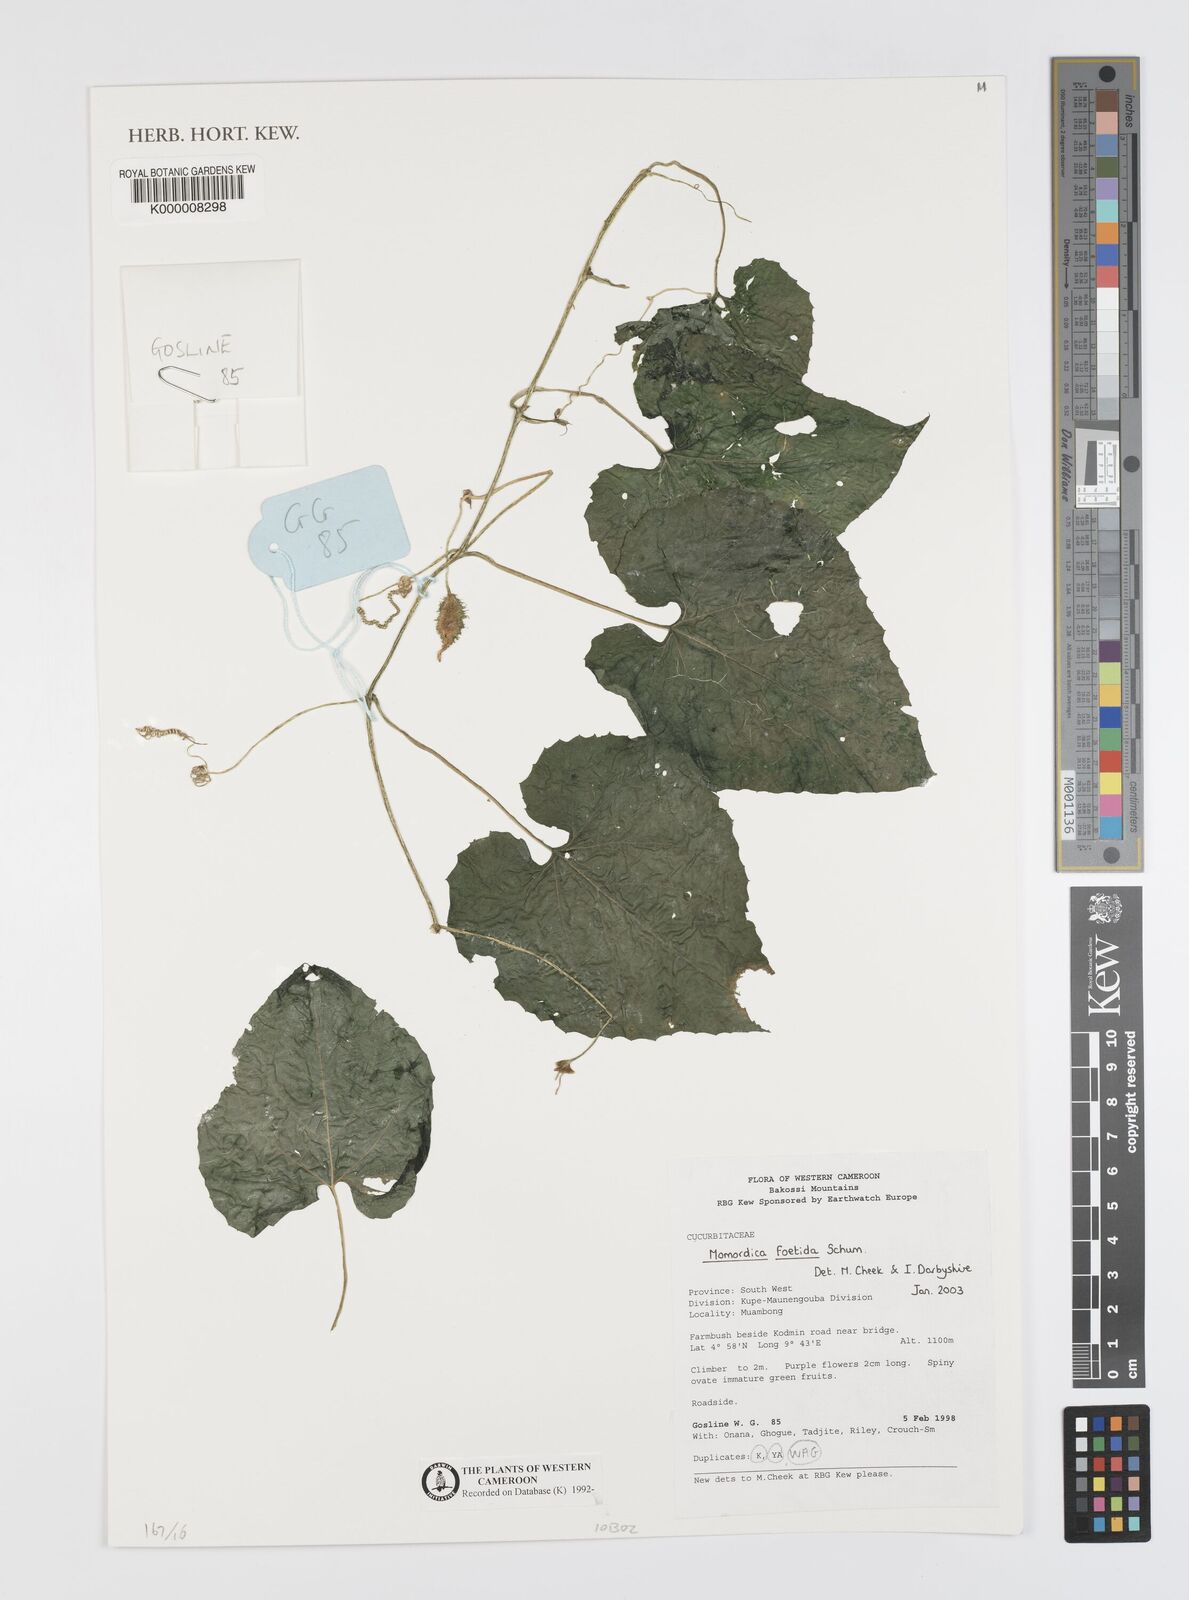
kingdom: Plantae
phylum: Tracheophyta
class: Magnoliopsida
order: Cucurbitales
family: Cucurbitaceae
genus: Momordica
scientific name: Momordica foetida
